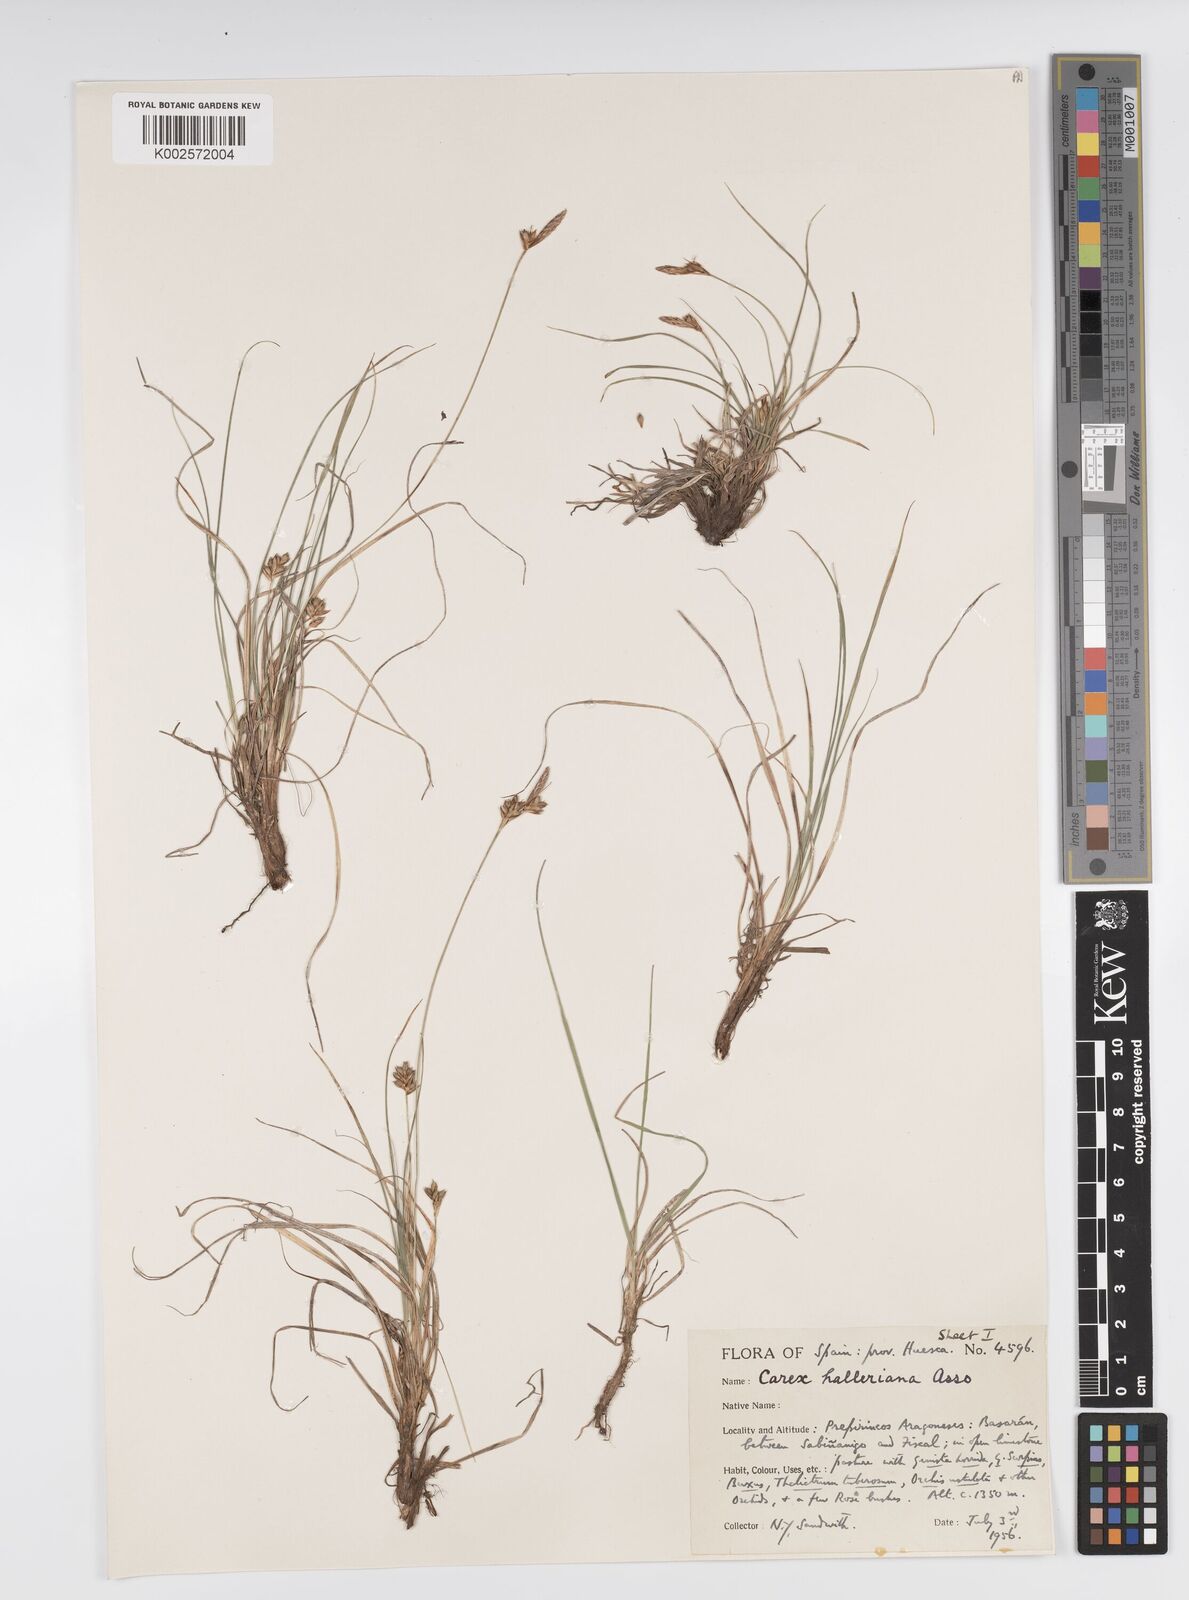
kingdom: Plantae
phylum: Tracheophyta
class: Liliopsida
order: Poales
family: Cyperaceae
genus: Carex
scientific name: Carex halleriana
